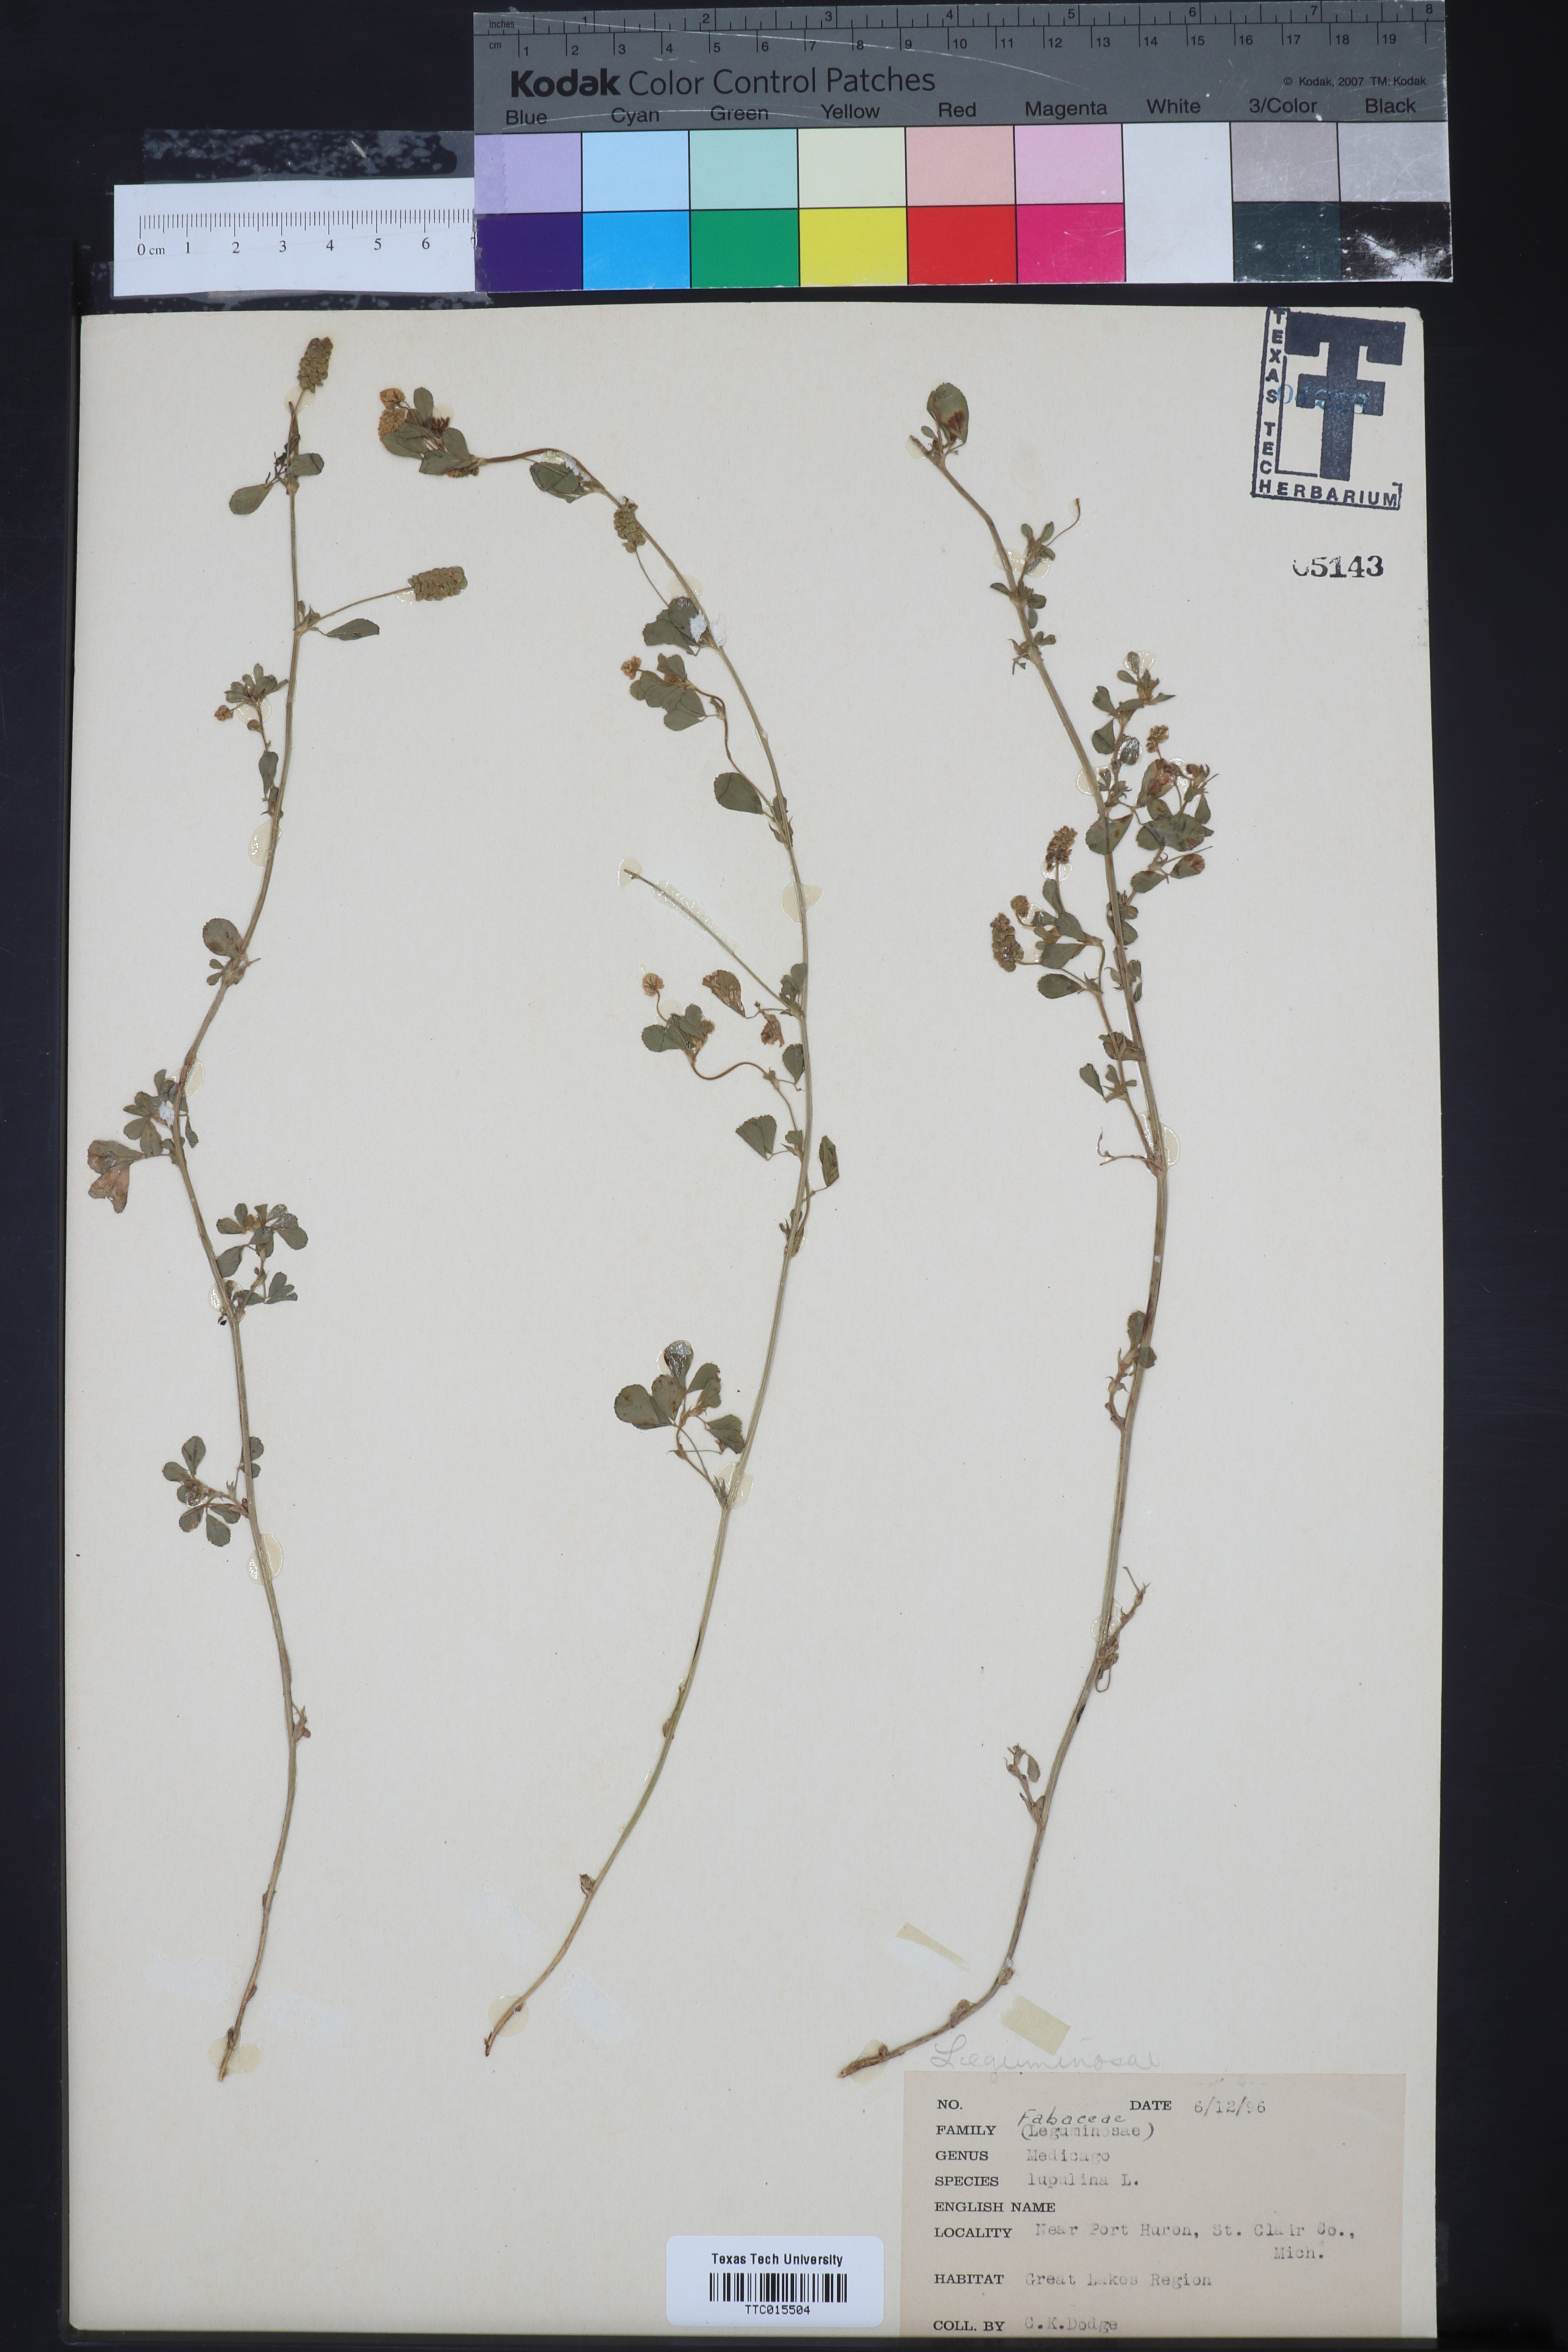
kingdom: Plantae
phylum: Tracheophyta
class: Magnoliopsida
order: Fabales
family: Fabaceae
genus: Medicago
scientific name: Medicago lupulina
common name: Black medick
